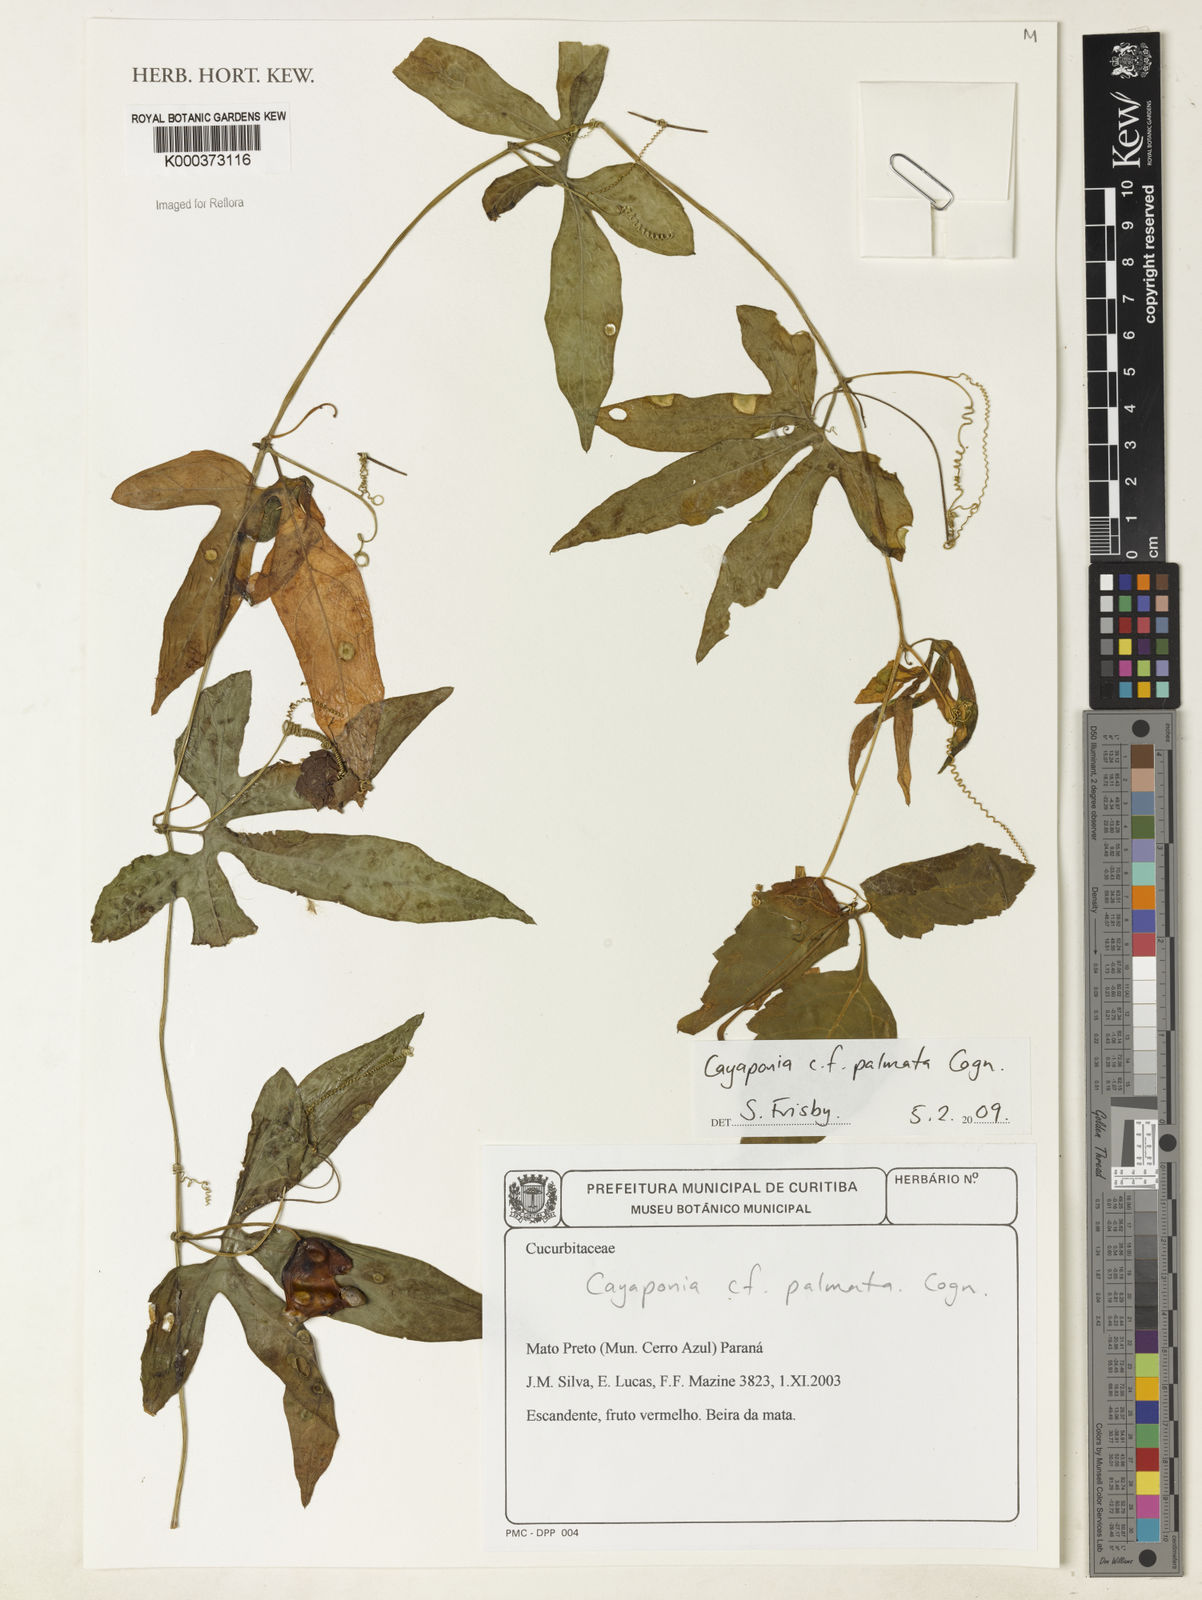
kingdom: Plantae
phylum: Tracheophyta
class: Magnoliopsida
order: Cucurbitales
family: Cucurbitaceae
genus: Cayaponia
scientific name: Cayaponia palmata
